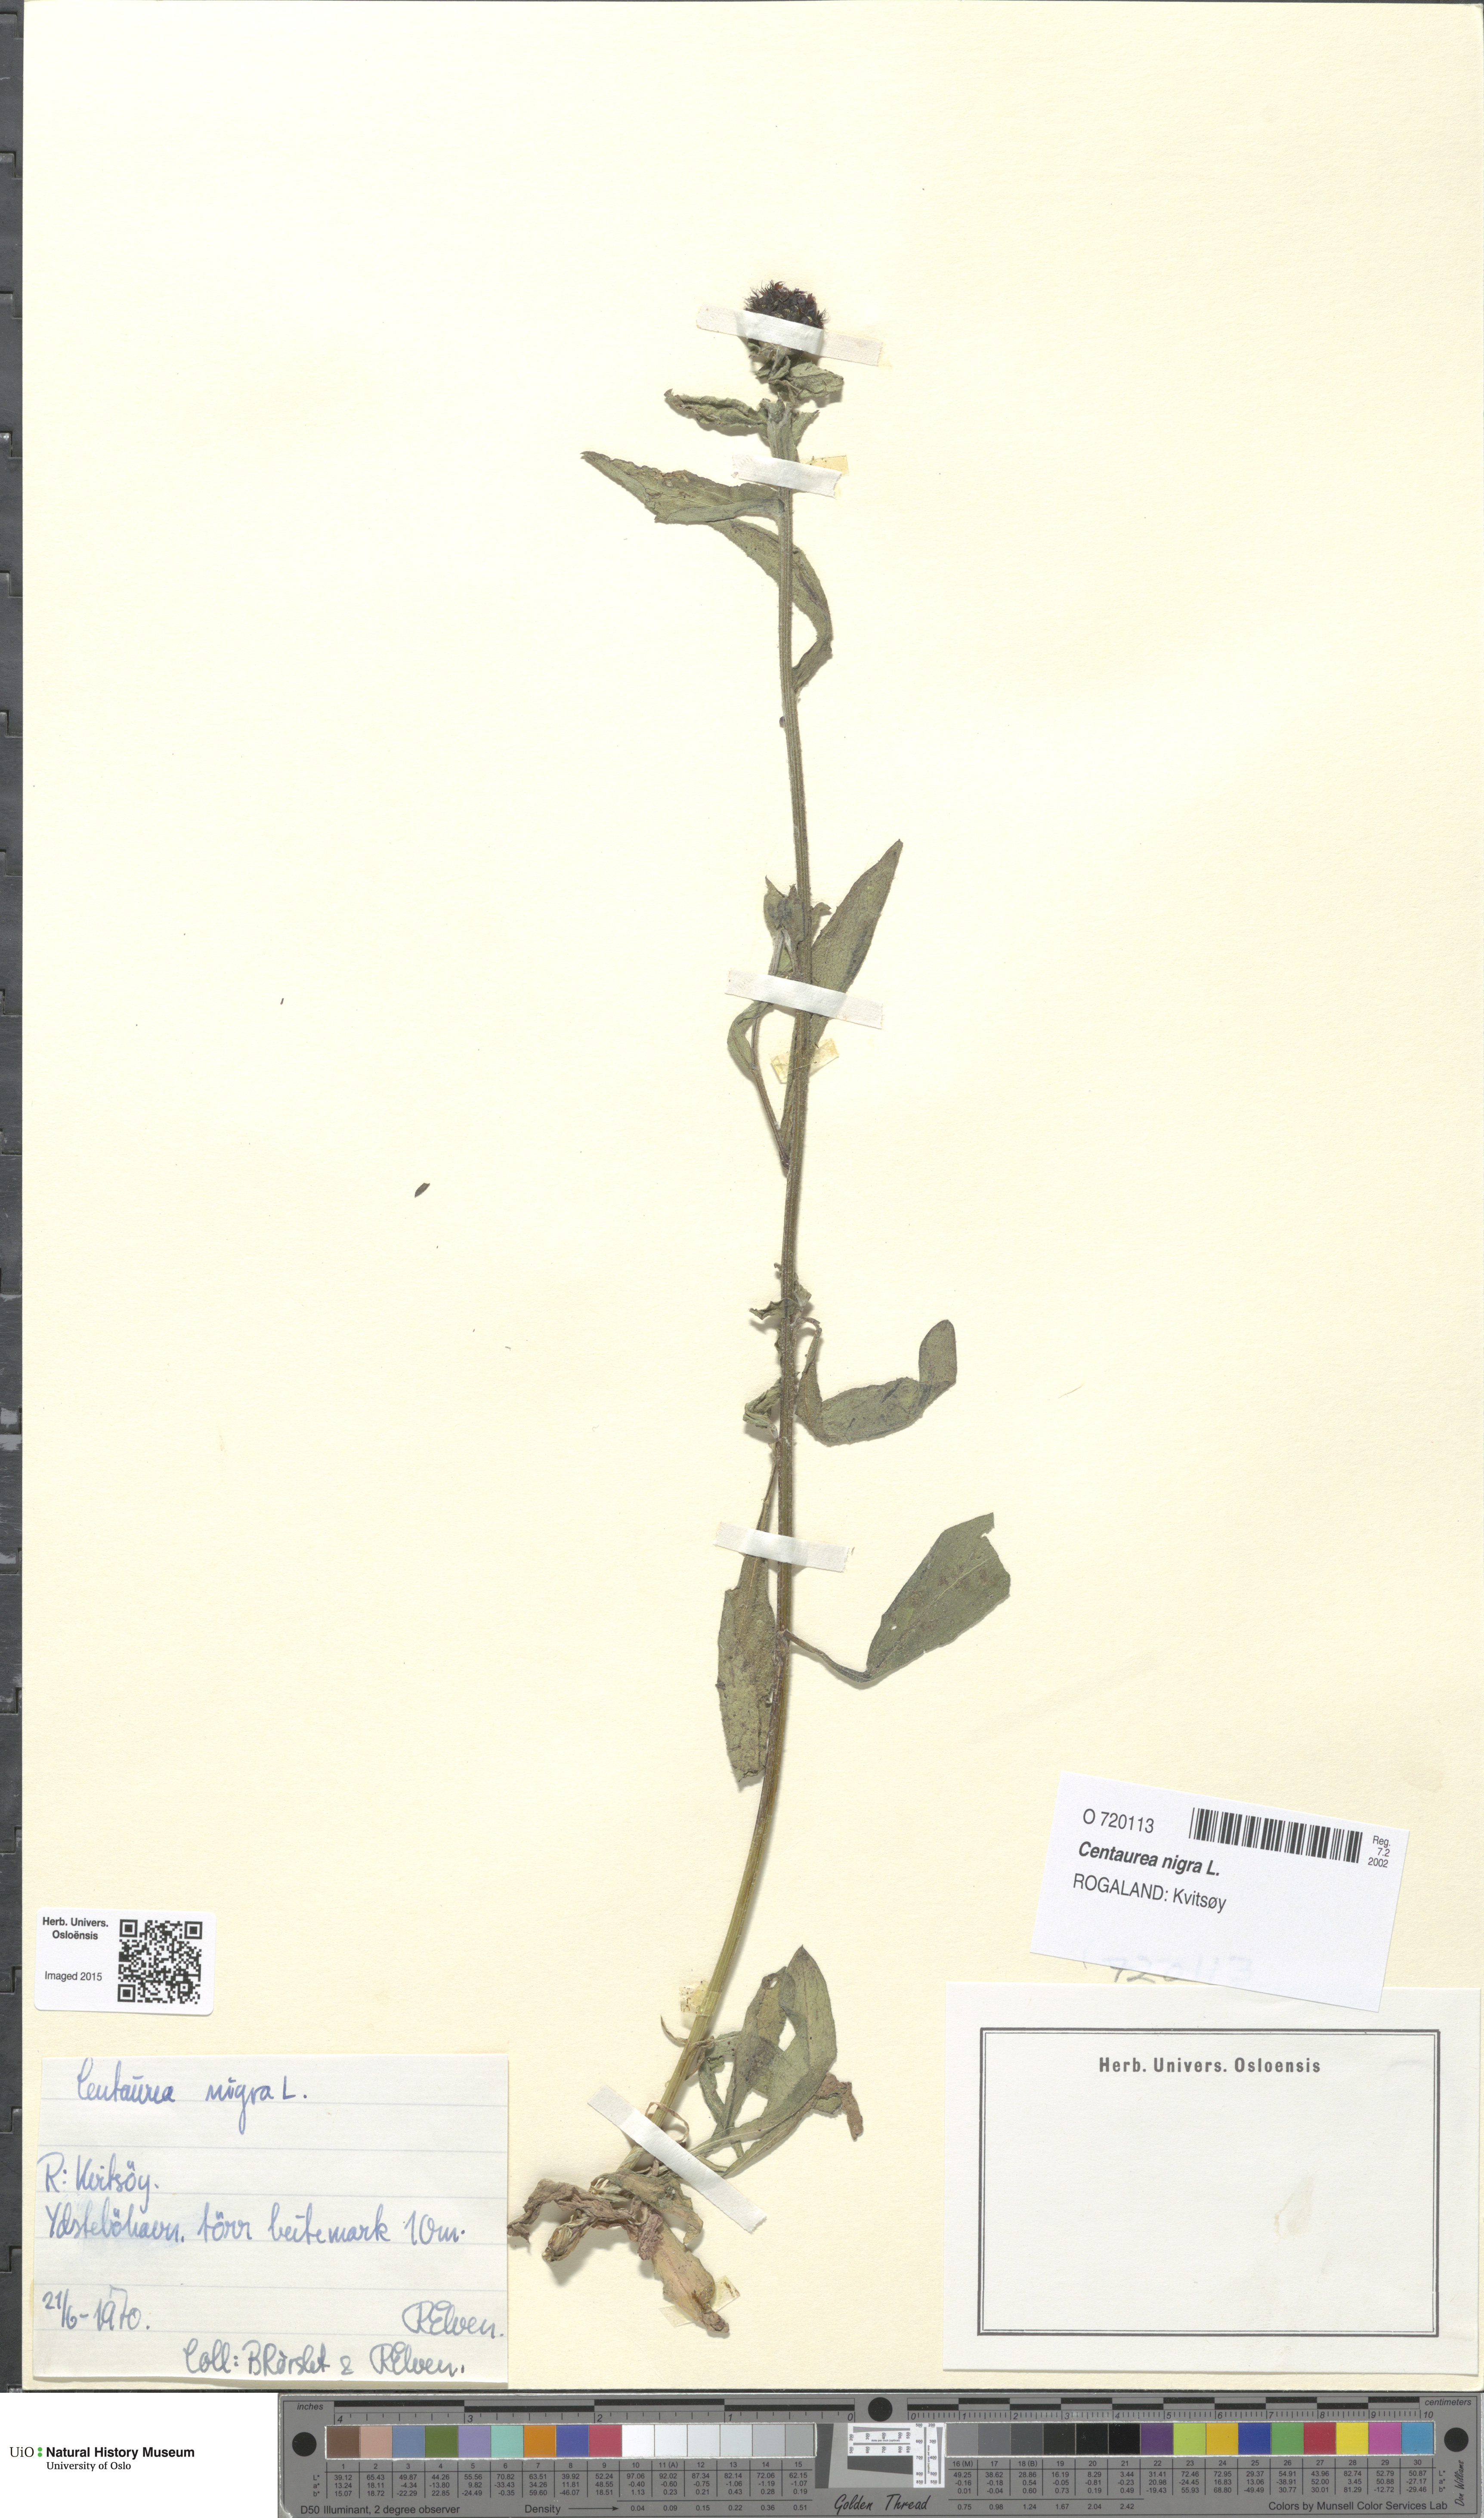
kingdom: Plantae
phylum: Tracheophyta
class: Magnoliopsida
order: Asterales
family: Asteraceae
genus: Centaurea
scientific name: Centaurea nigra
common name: Lesser knapweed
